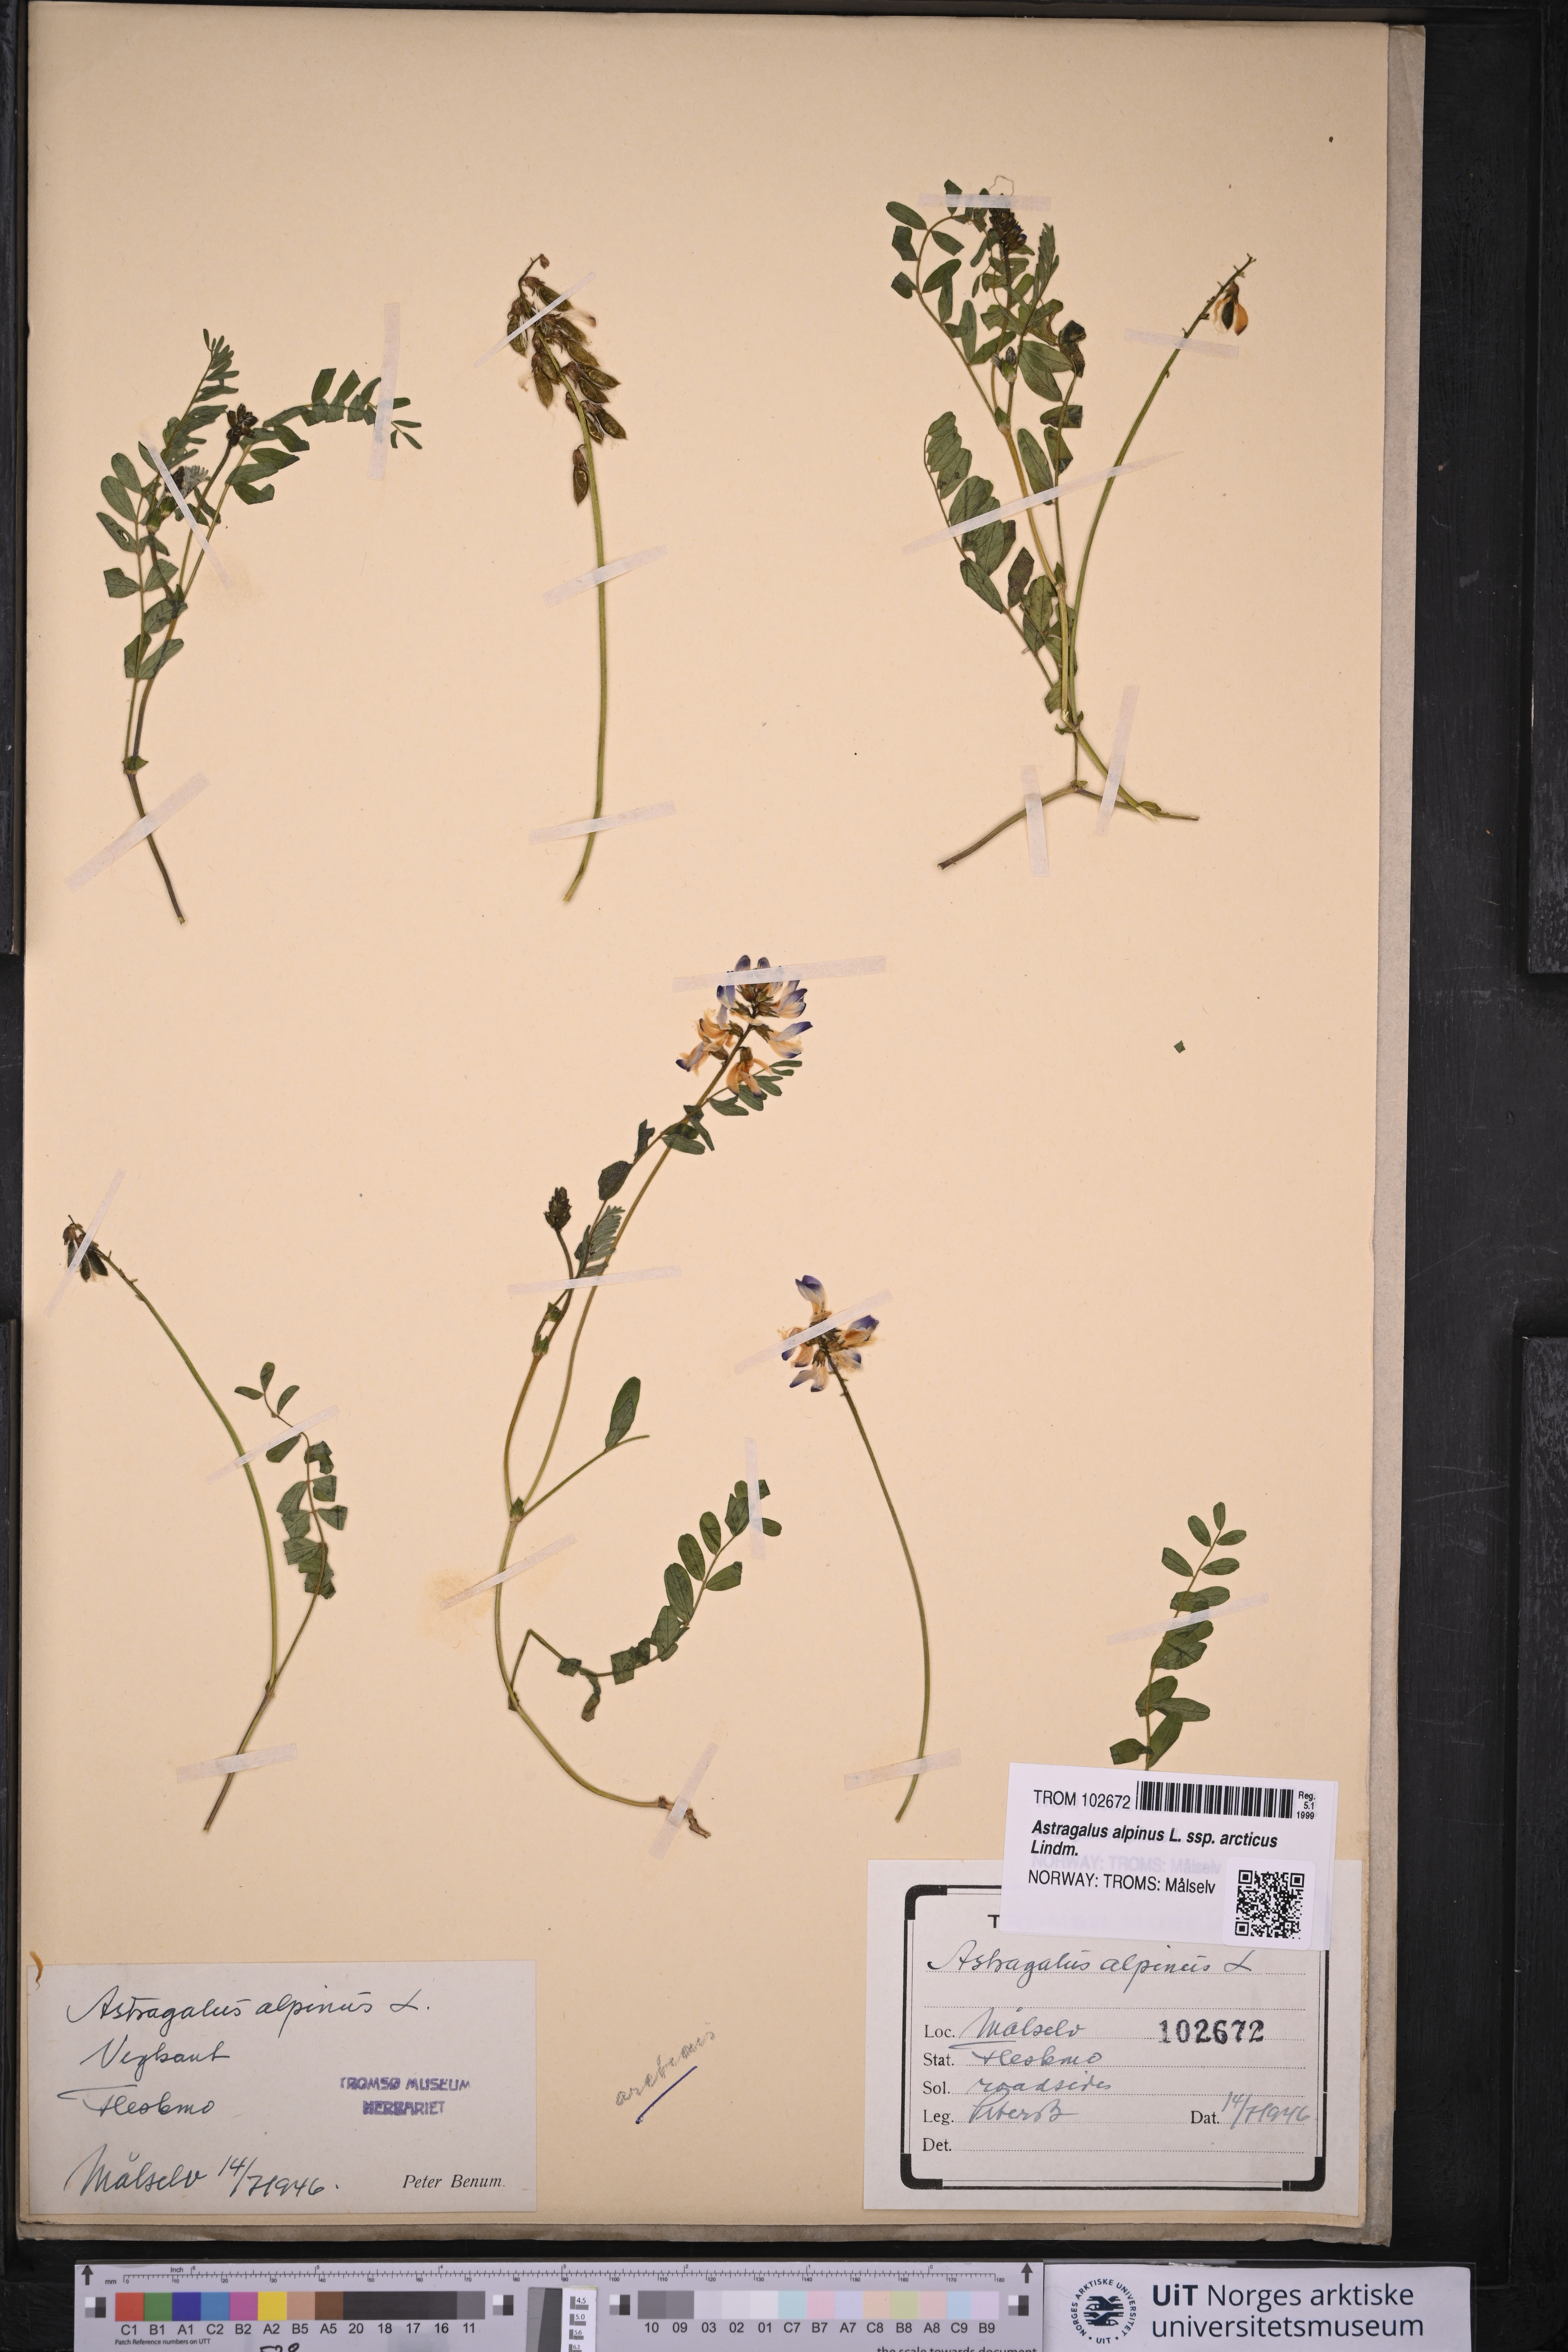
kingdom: Plantae
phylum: Tracheophyta
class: Magnoliopsida
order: Fabales
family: Fabaceae
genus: Astragalus
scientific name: Astragalus norvegicus
